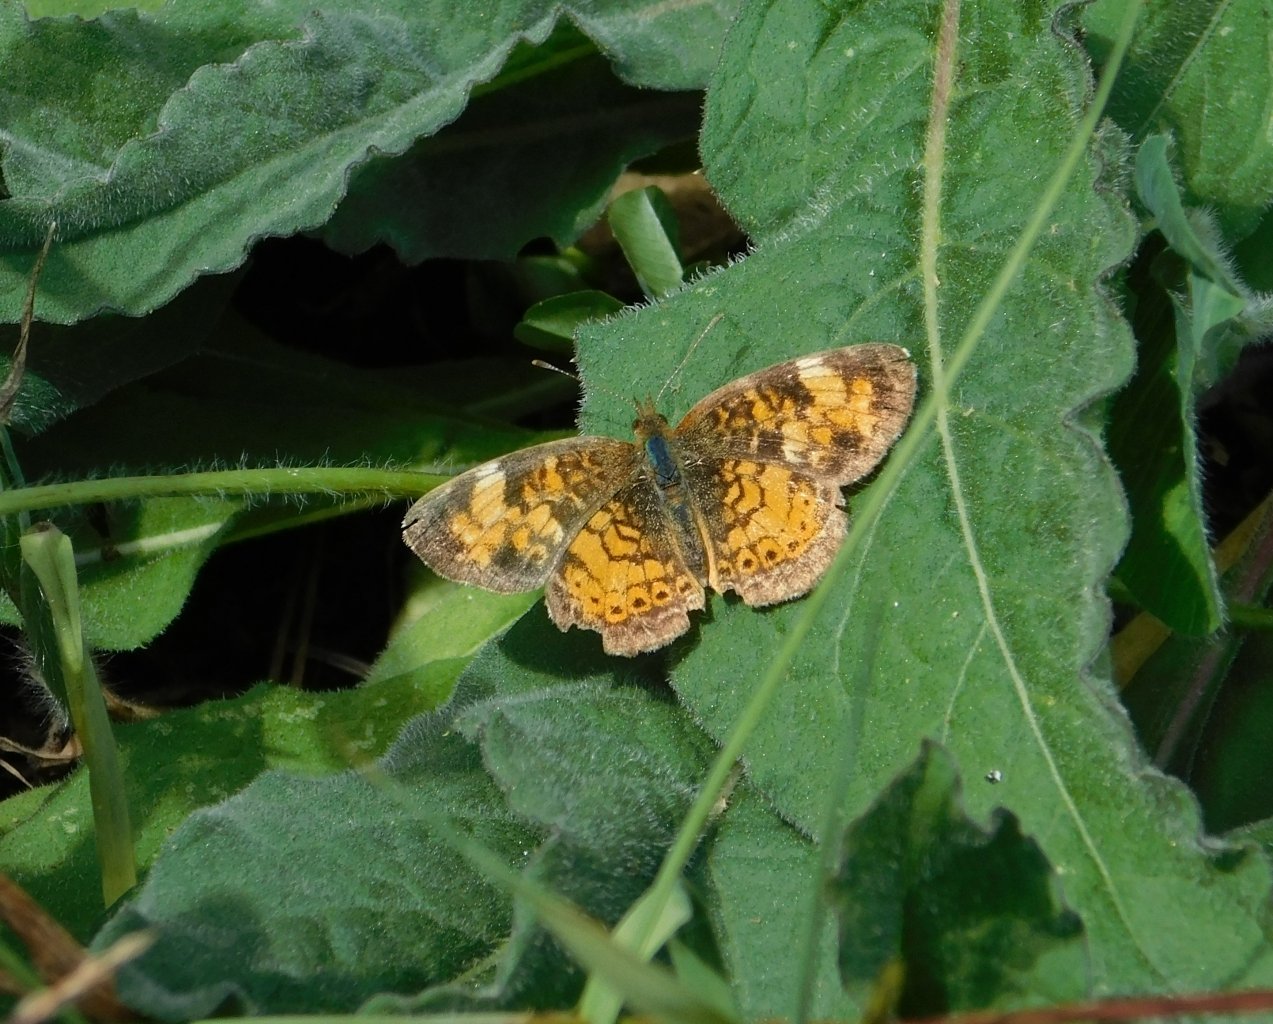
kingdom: Animalia
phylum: Arthropoda
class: Insecta
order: Lepidoptera
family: Nymphalidae
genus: Phyciodes
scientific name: Phyciodes tharos
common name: Northern Crescent
